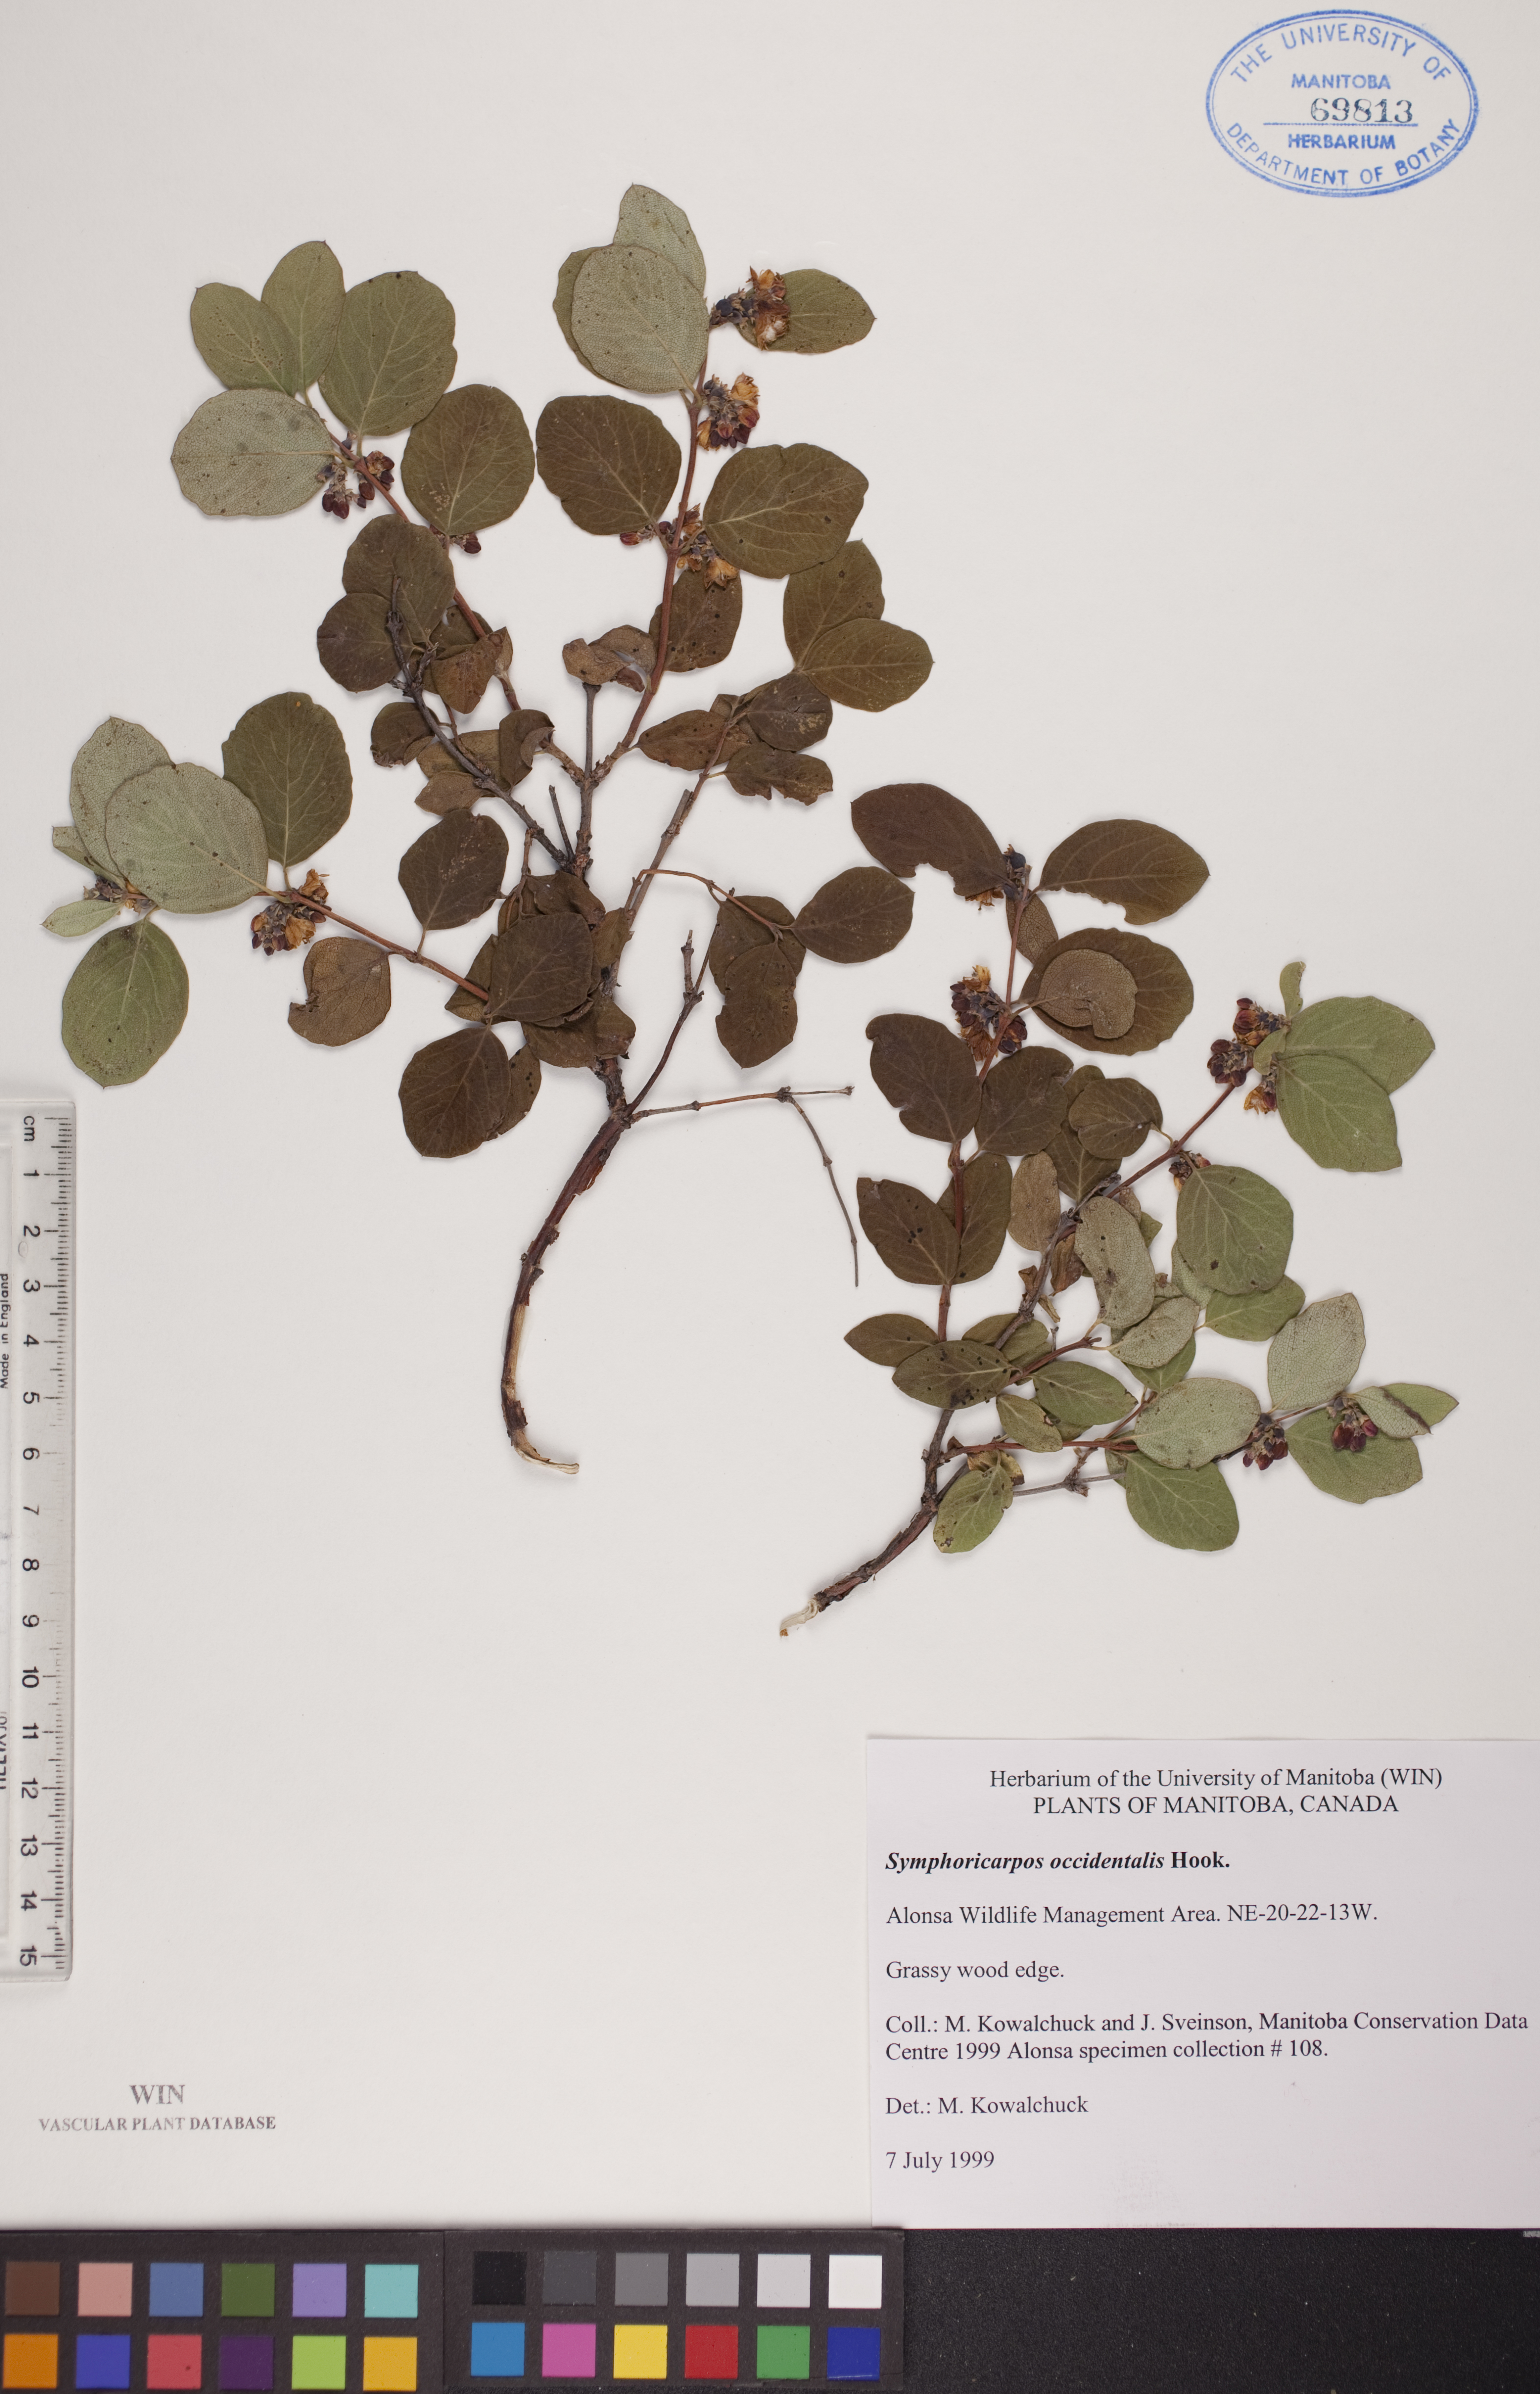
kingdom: Plantae
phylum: Tracheophyta
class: Magnoliopsida
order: Dipsacales
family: Caprifoliaceae
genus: Symphoricarpos
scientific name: Symphoricarpos occidentalis
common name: Wolfberry
